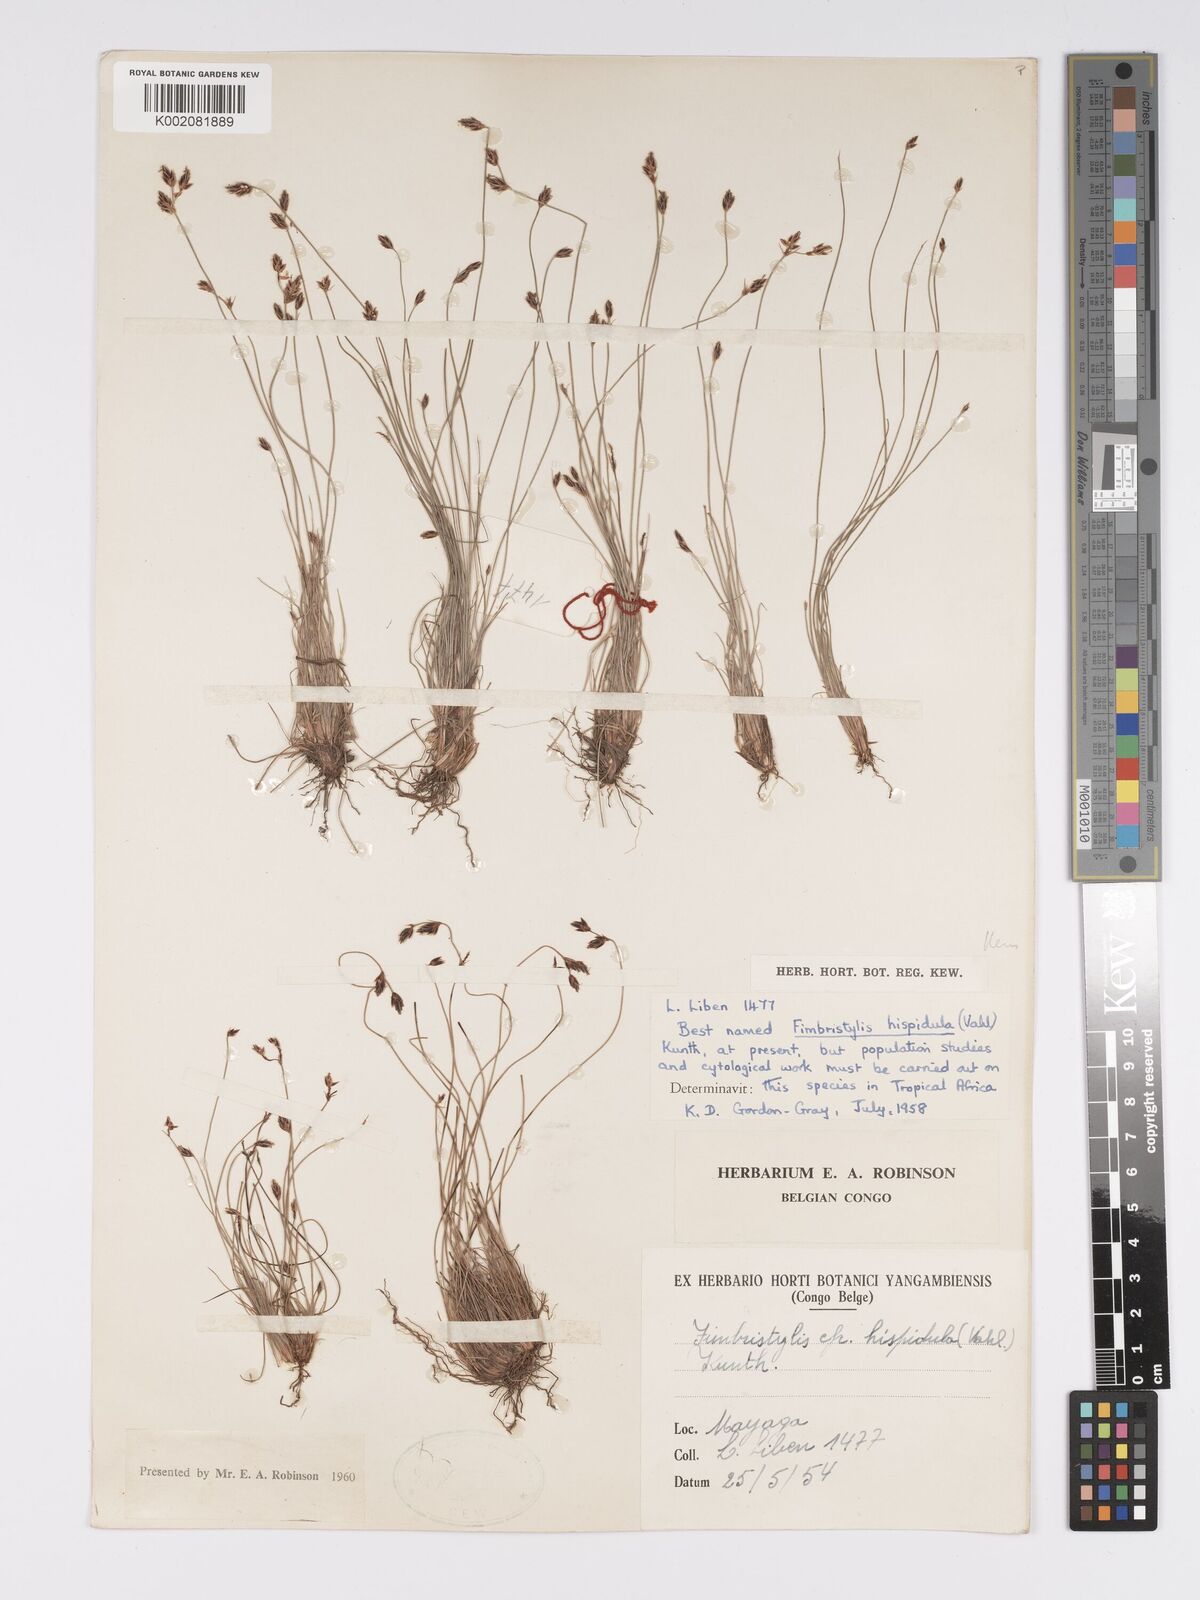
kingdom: Plantae
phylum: Tracheophyta
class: Liliopsida
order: Poales
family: Cyperaceae
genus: Bulbostylis
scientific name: Bulbostylis hispidula
